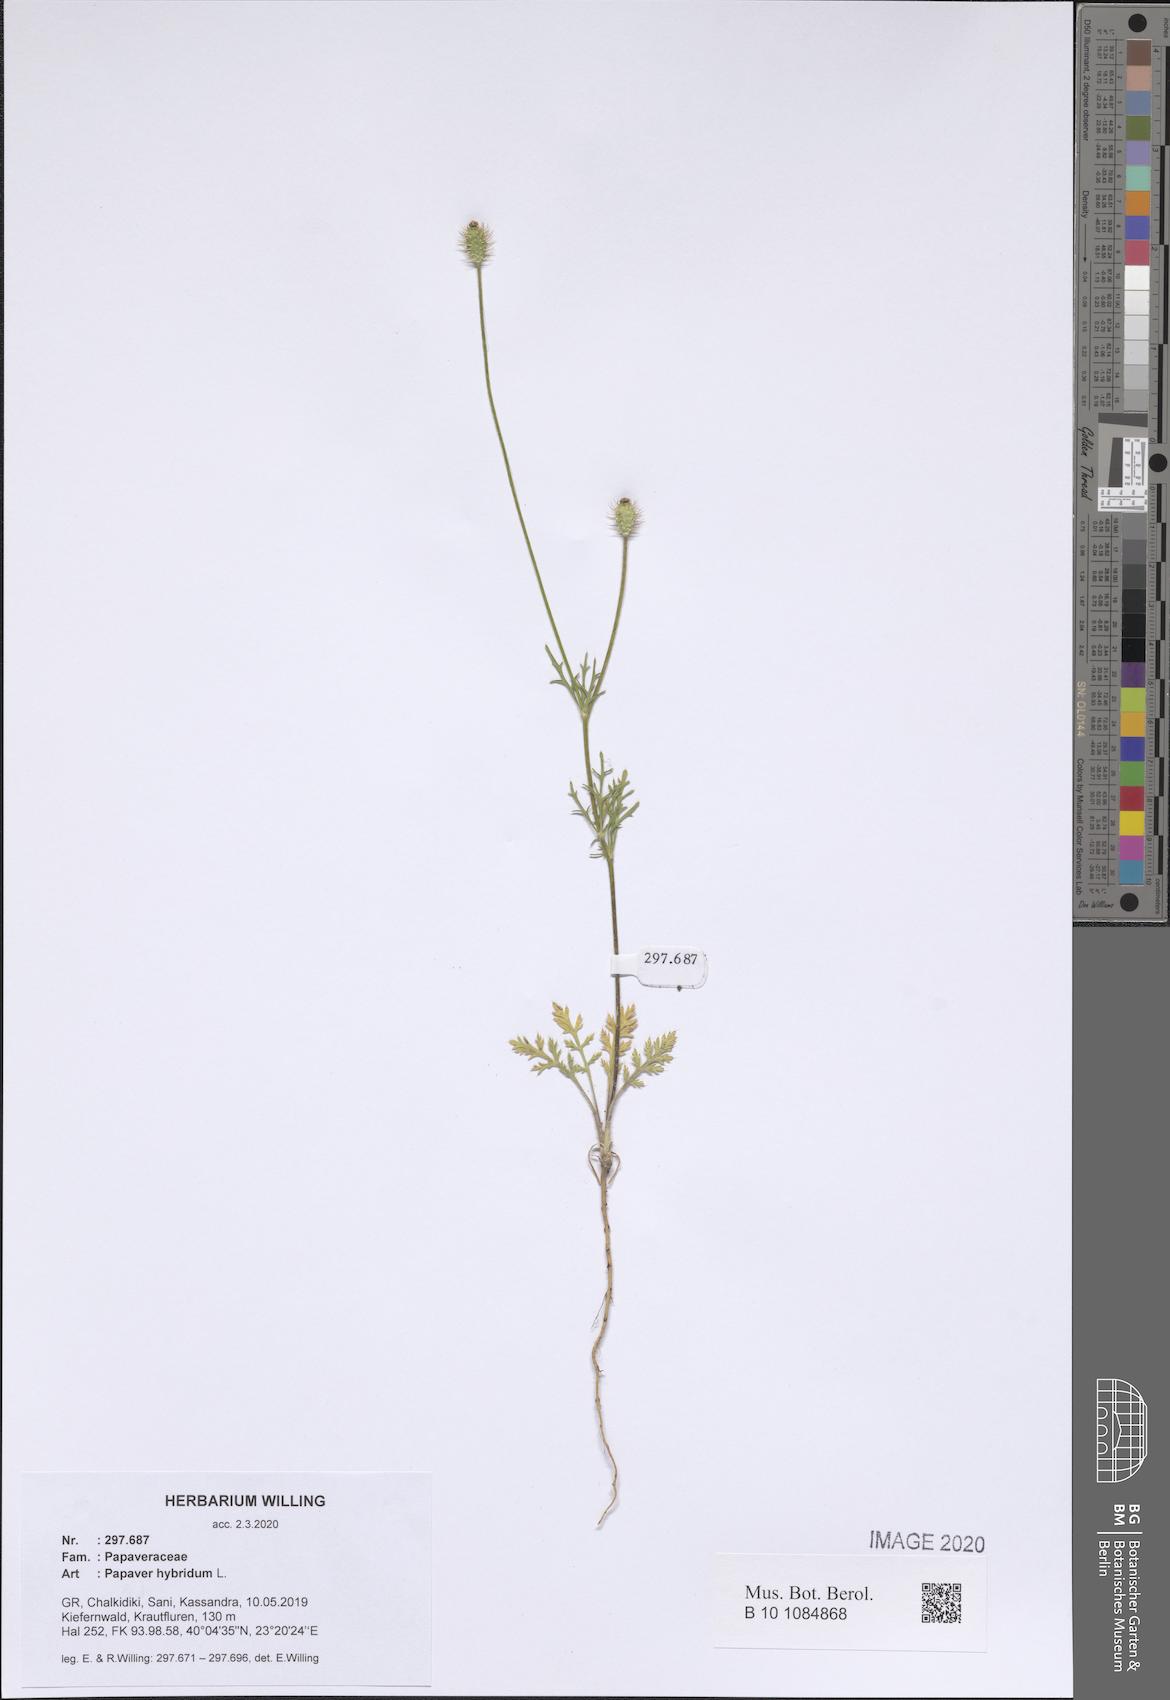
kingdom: Plantae
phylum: Tracheophyta
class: Magnoliopsida
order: Ranunculales
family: Papaveraceae
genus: Roemeria
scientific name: Roemeria hispida
